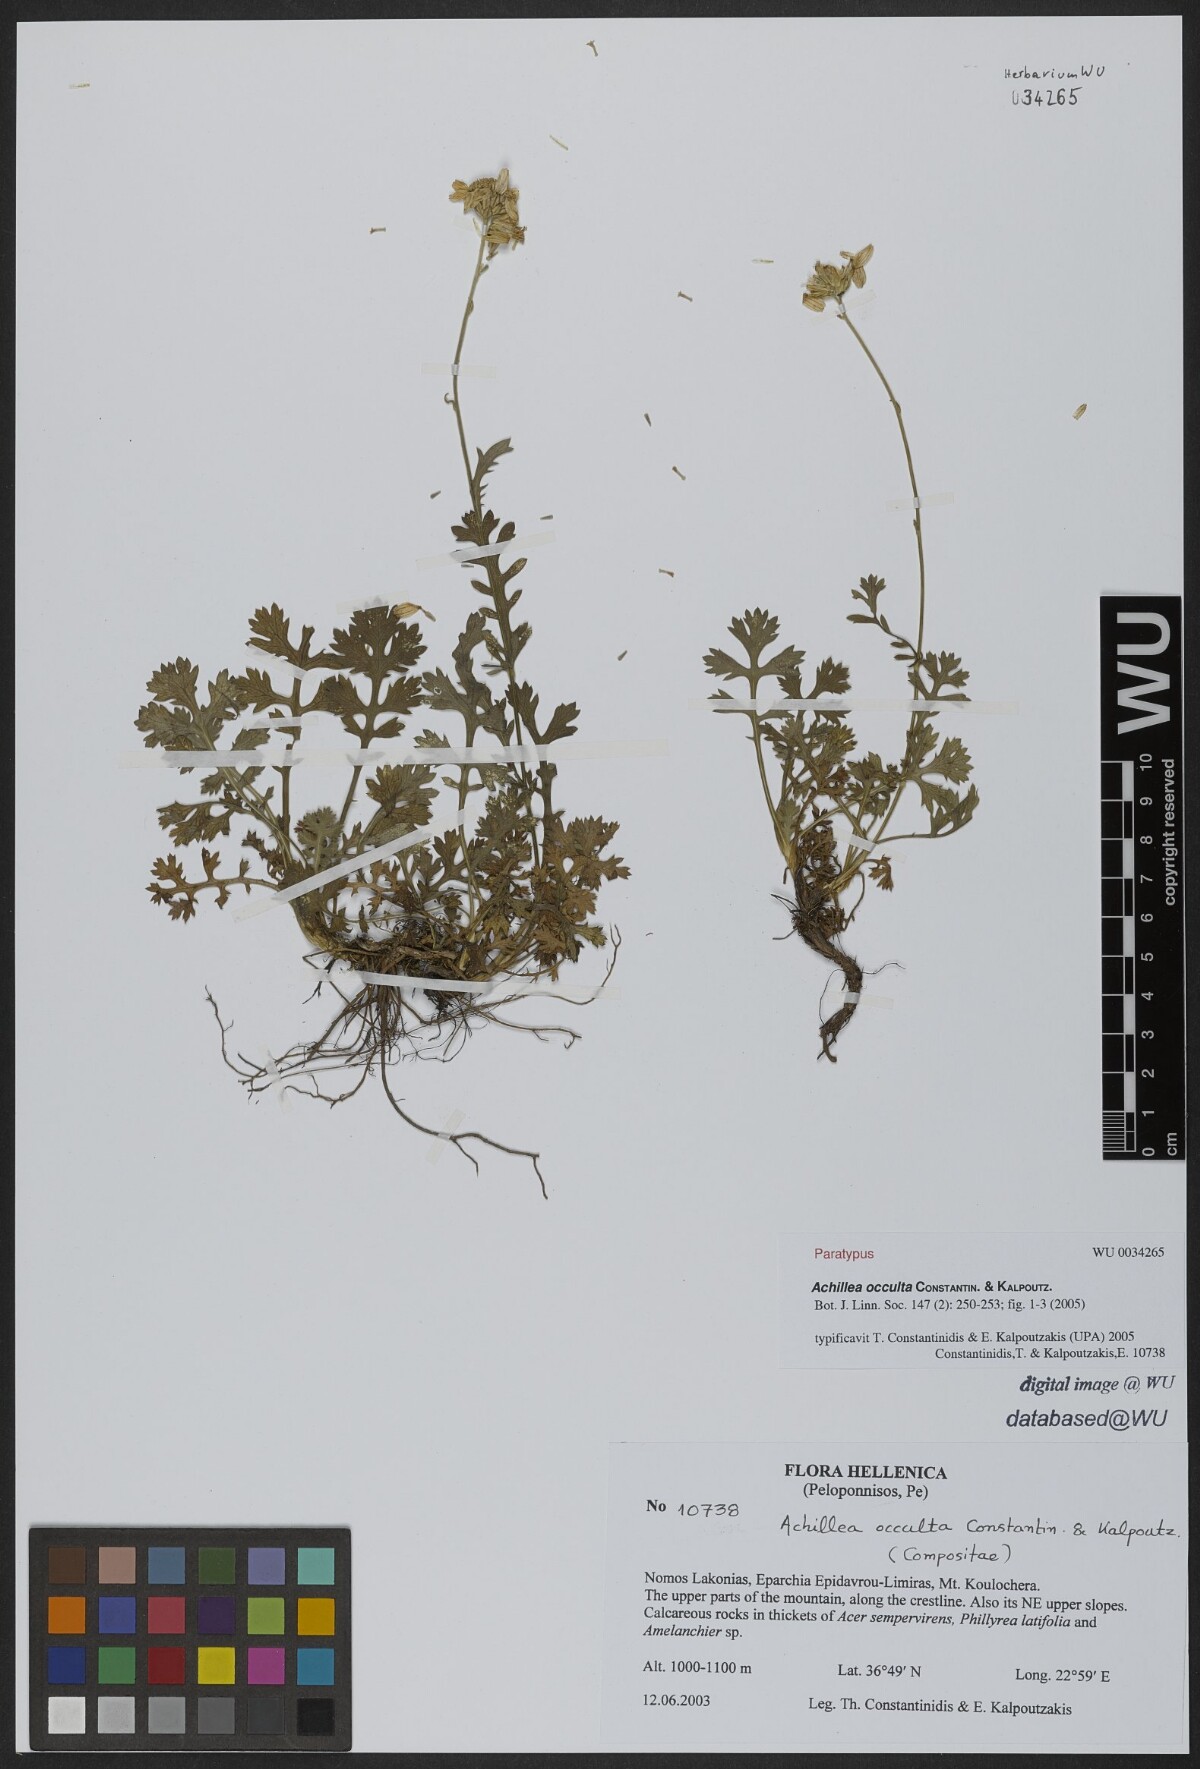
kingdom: Plantae
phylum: Tracheophyta
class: Magnoliopsida
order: Asterales
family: Asteraceae
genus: Achillea
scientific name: Achillea occulta
